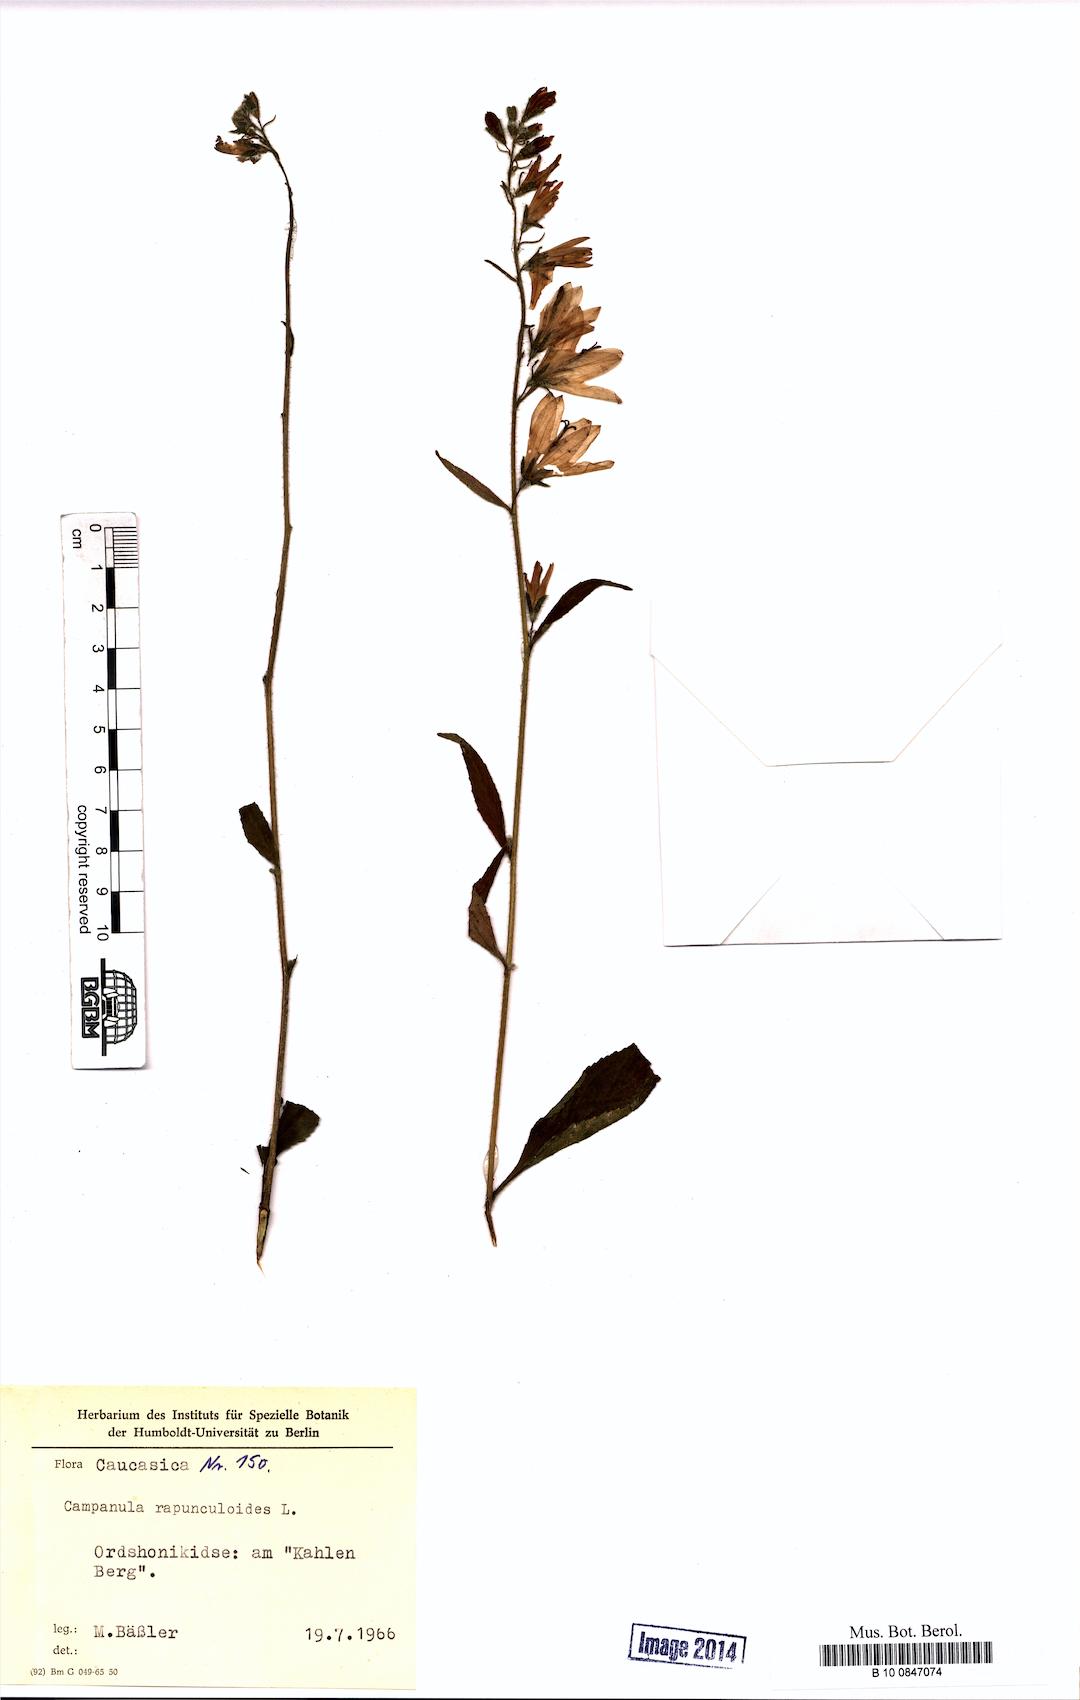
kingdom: Plantae
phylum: Tracheophyta
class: Magnoliopsida
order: Asterales
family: Campanulaceae
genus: Campanula
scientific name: Campanula rapunculoides
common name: Creeping bellflower
